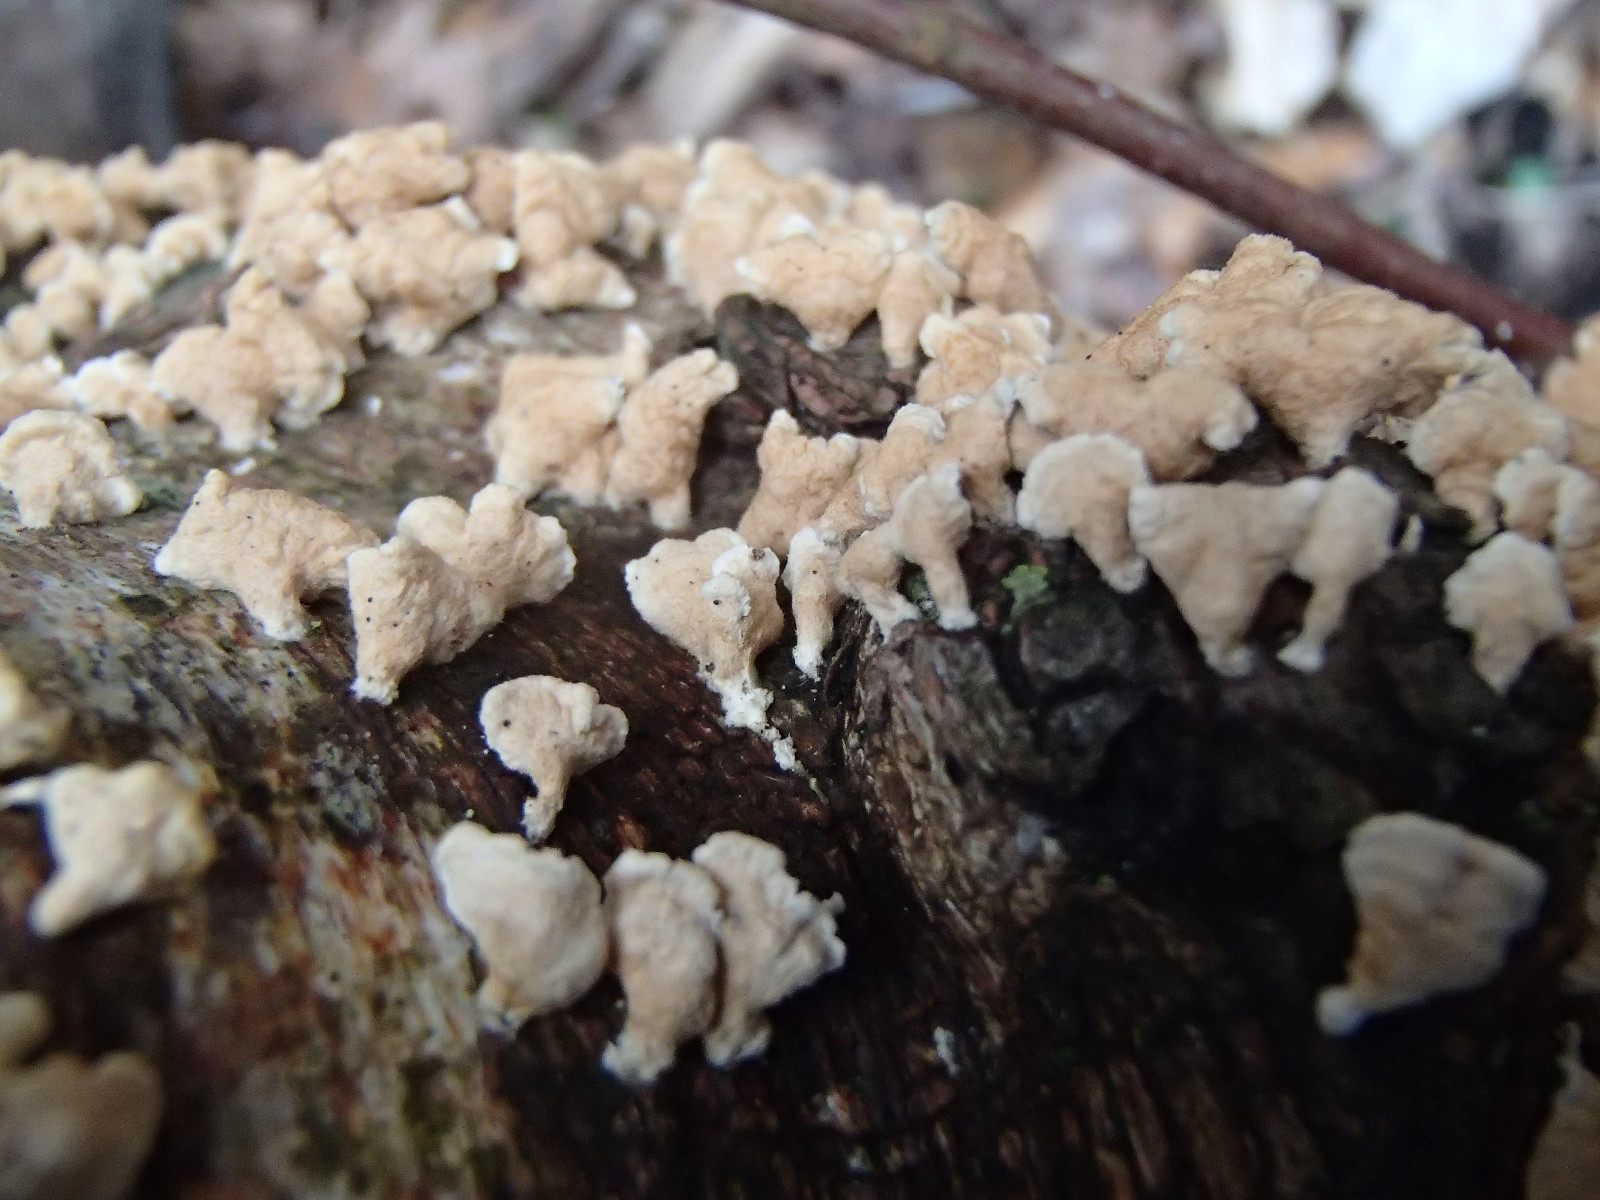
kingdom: Fungi
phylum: Basidiomycota
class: Agaricomycetes
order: Amylocorticiales
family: Amylocorticiaceae
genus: Plicaturopsis
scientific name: Plicaturopsis crispa
